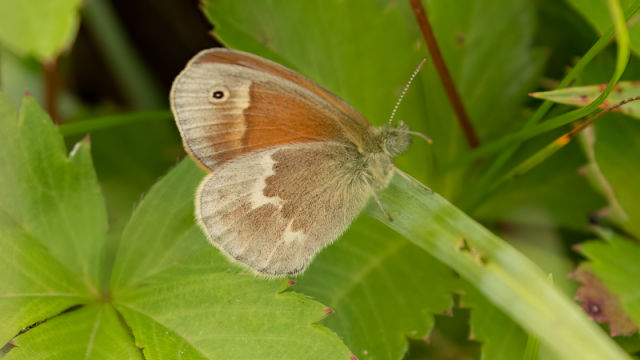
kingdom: Animalia
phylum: Arthropoda
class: Insecta
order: Lepidoptera
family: Nymphalidae
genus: Coenonympha
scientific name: Coenonympha tullia
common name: Large Heath
